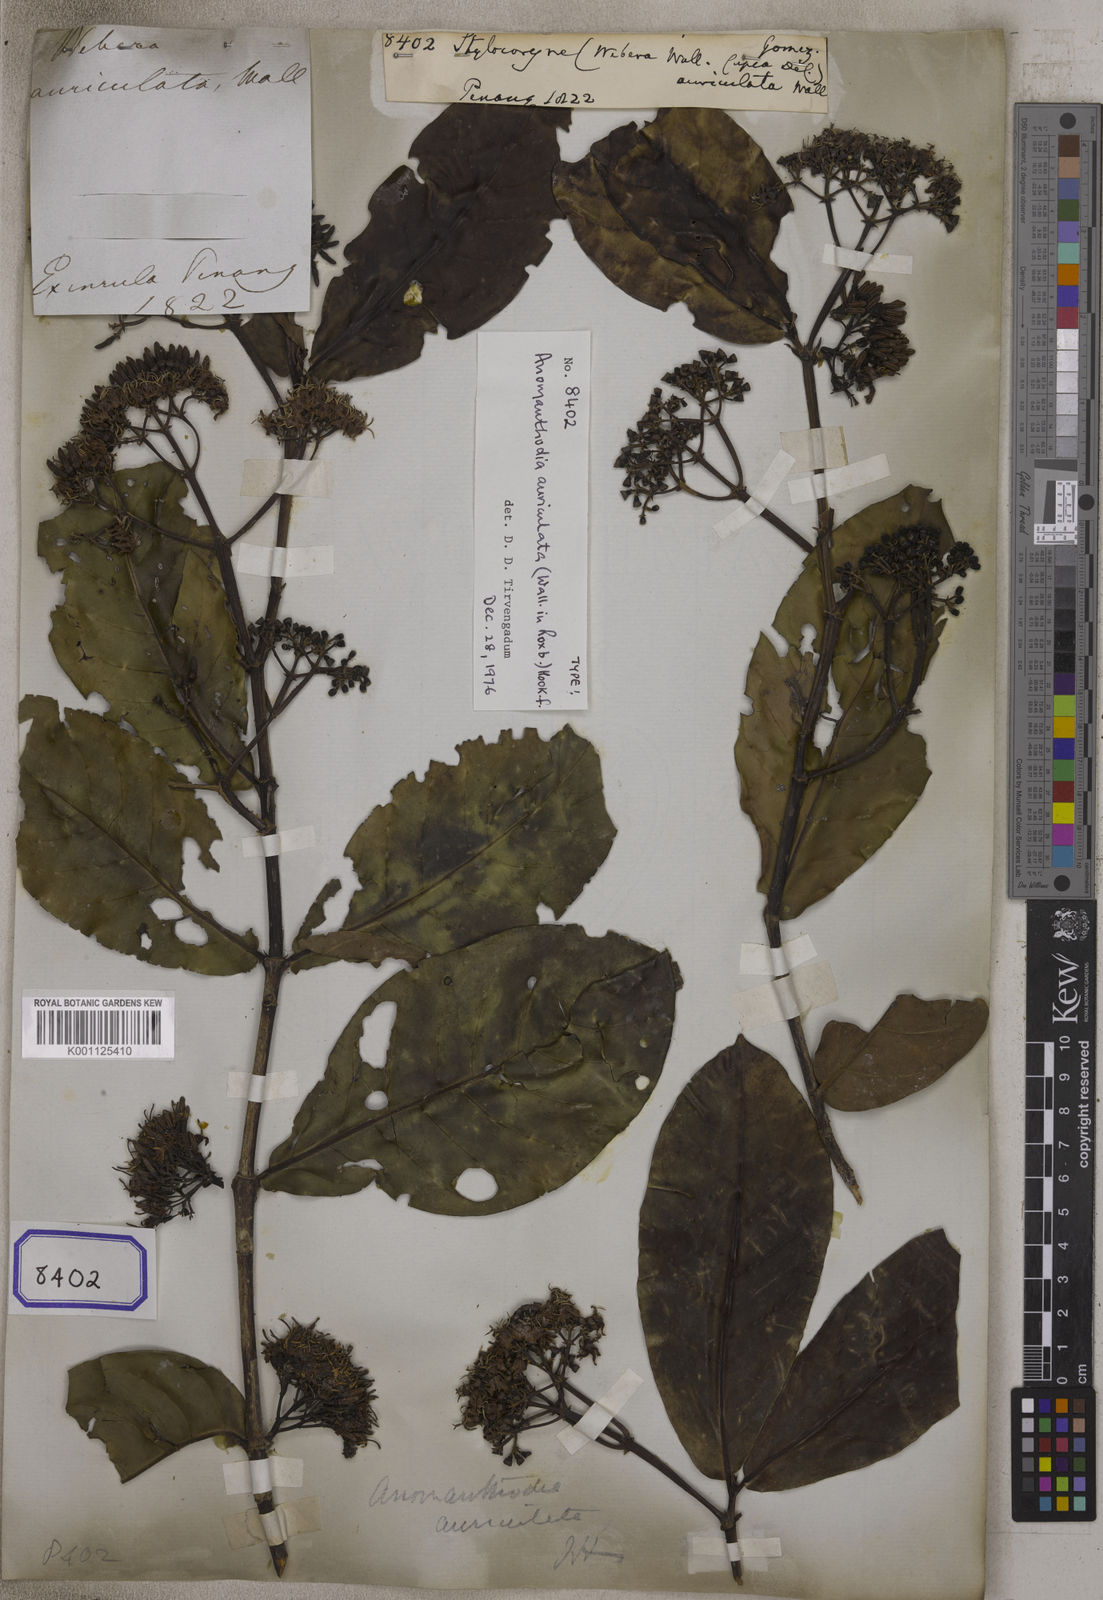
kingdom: Plantae
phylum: Tracheophyta
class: Magnoliopsida
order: Gentianales
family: Rubiaceae
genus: Aidia
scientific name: Aidia
